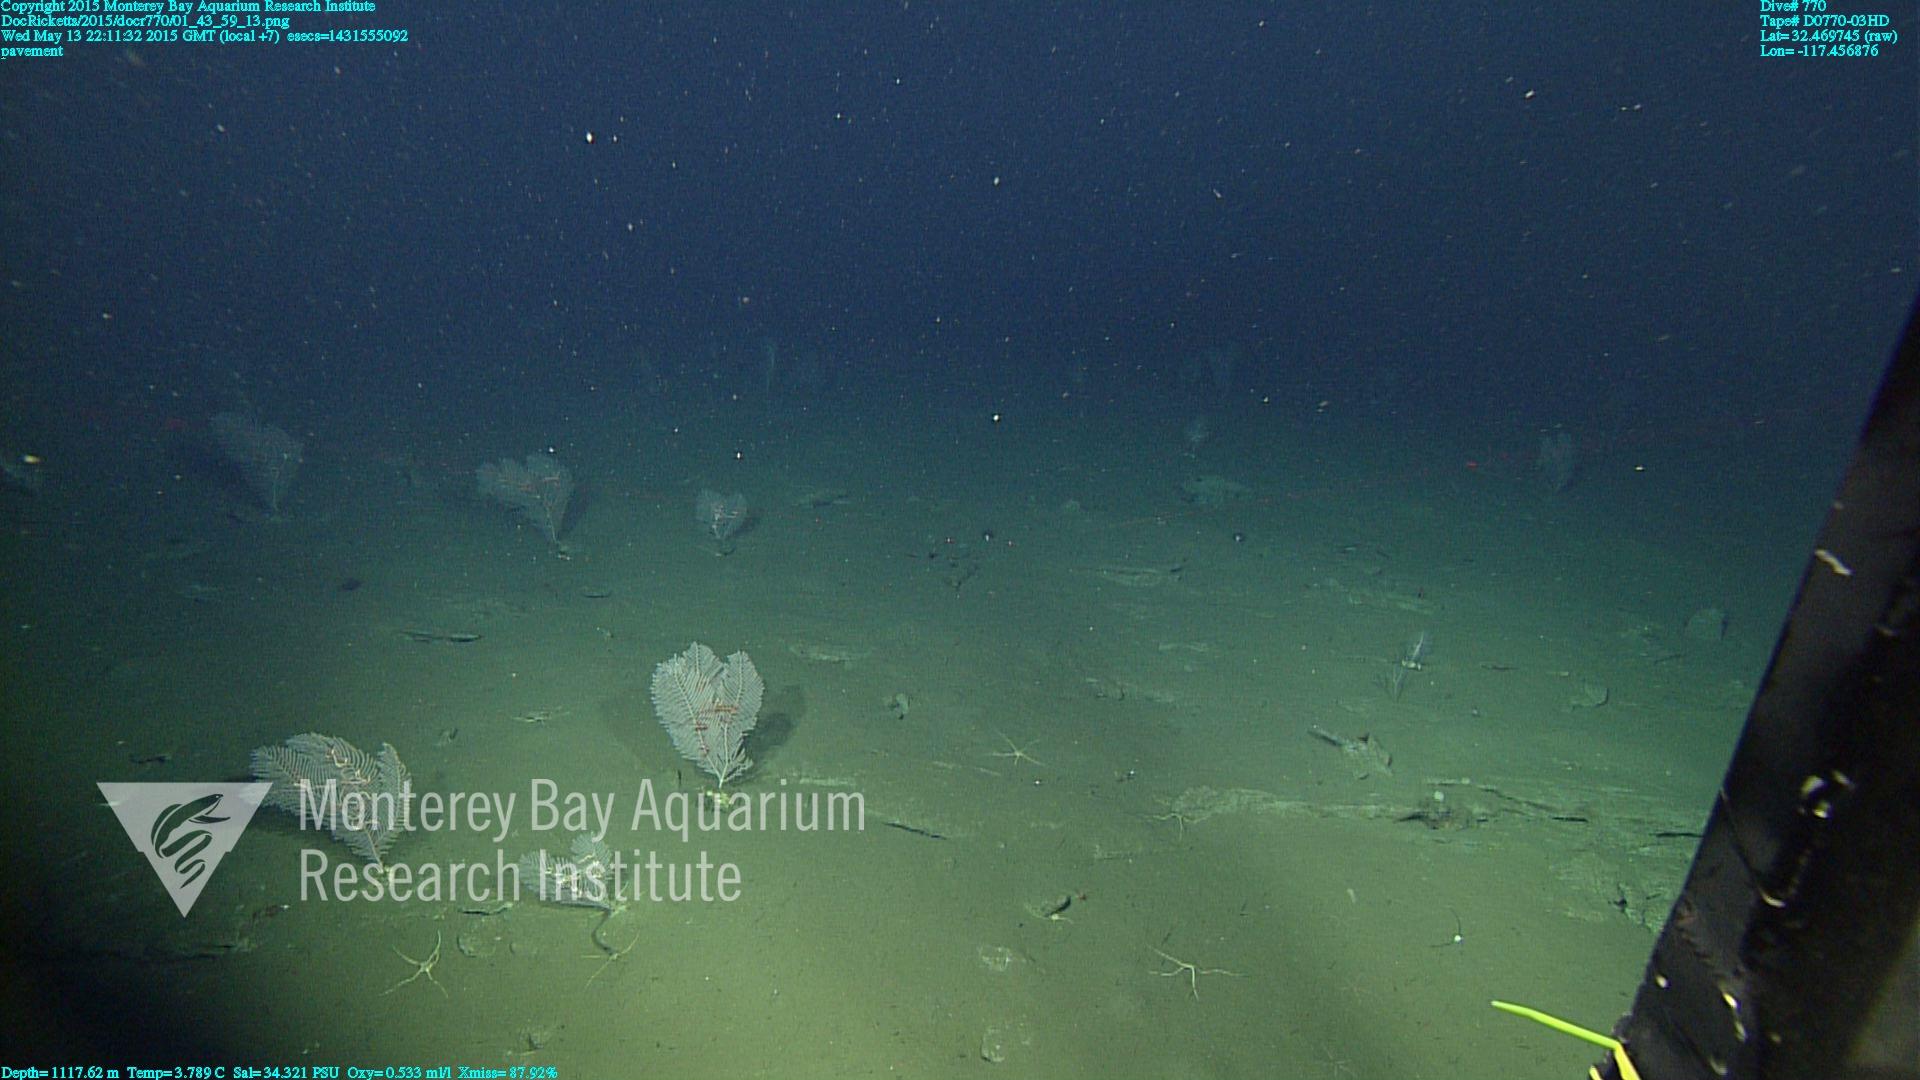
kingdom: Animalia
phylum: Cnidaria
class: Anthozoa
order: Scleralcyonacea
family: Primnoidae
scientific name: Primnoidae
